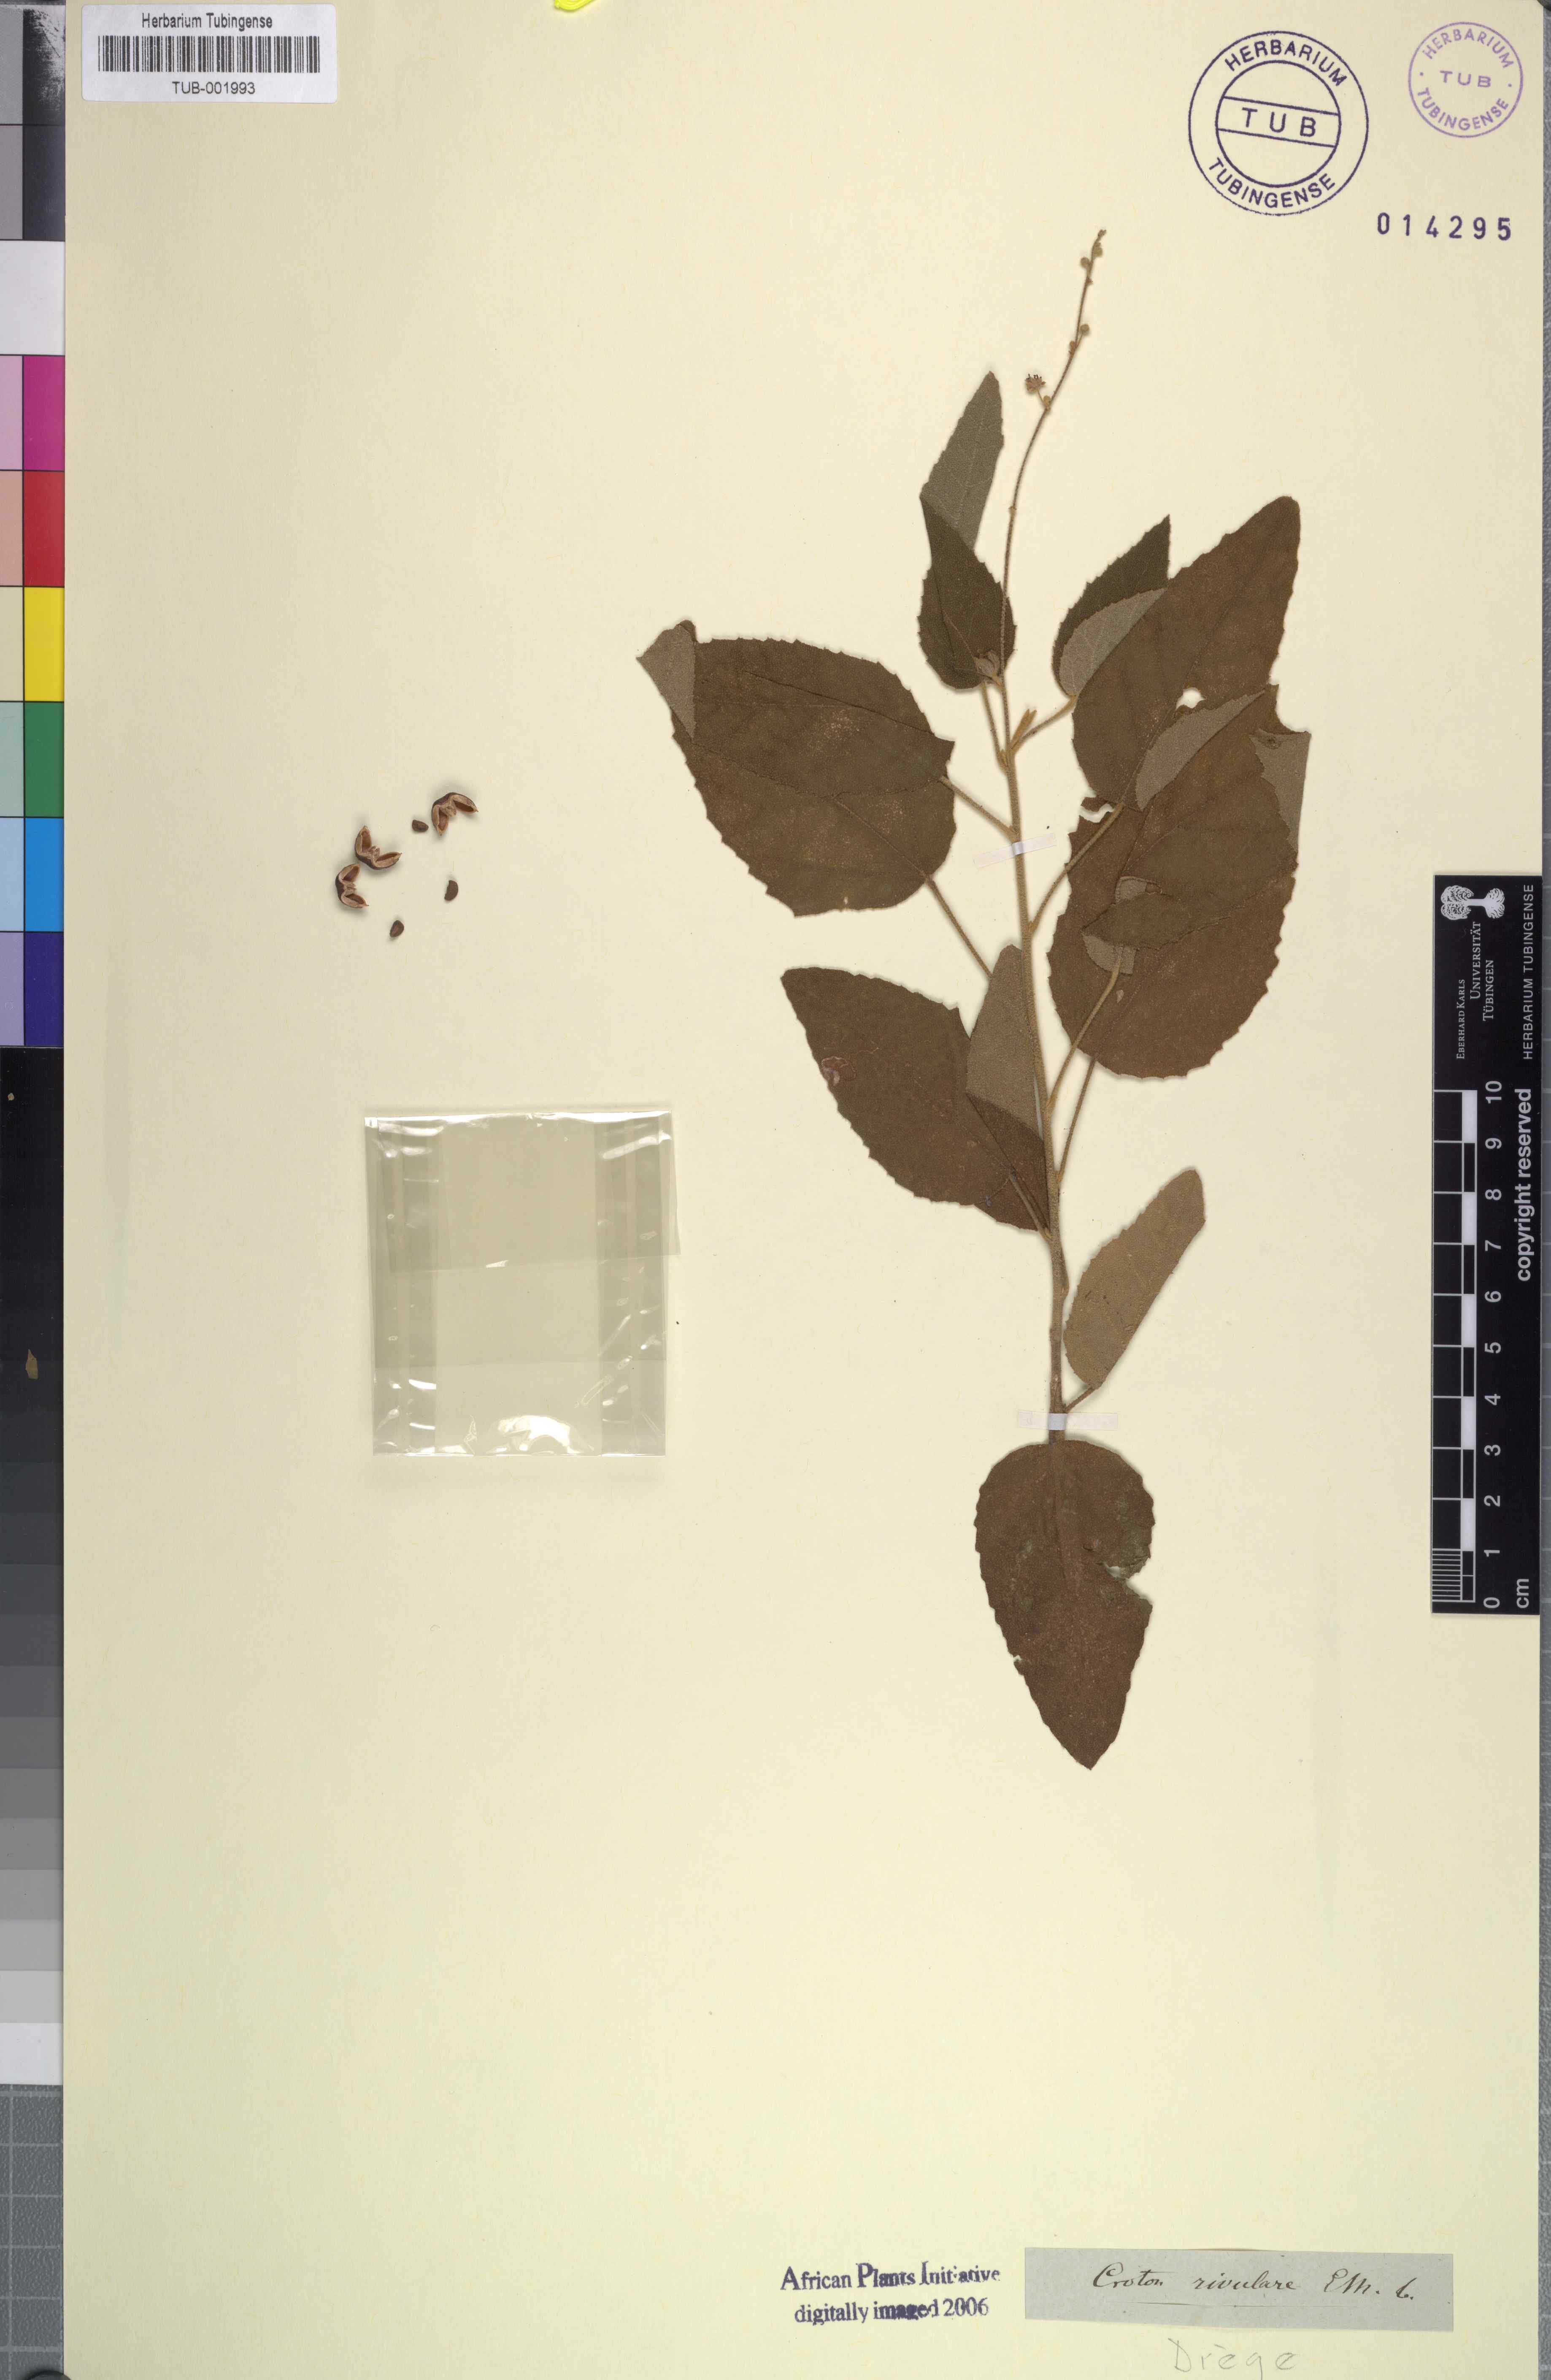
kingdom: Plantae
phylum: Tracheophyta
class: Magnoliopsida
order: Malpighiales
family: Euphorbiaceae
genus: Croton
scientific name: Croton rivularis
